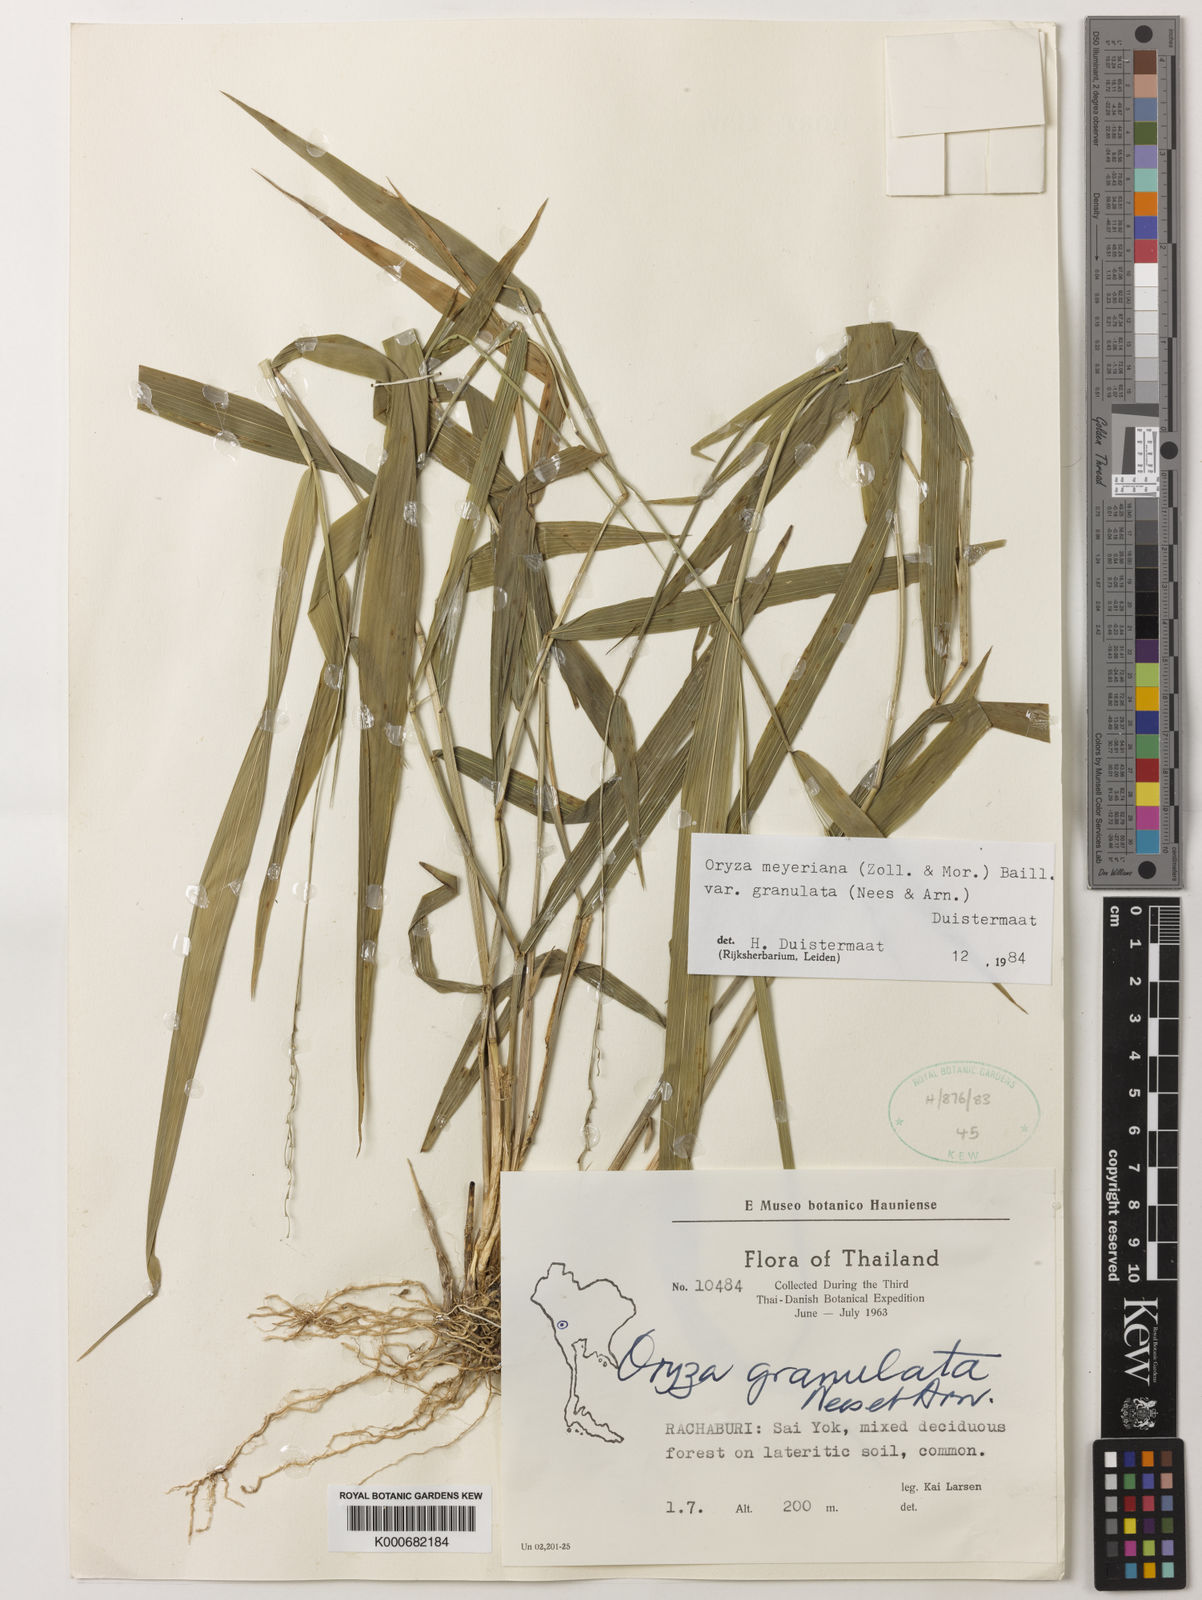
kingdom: Plantae
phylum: Tracheophyta
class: Liliopsida
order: Poales
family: Poaceae
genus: Oryza
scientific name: Oryza meyeriana
